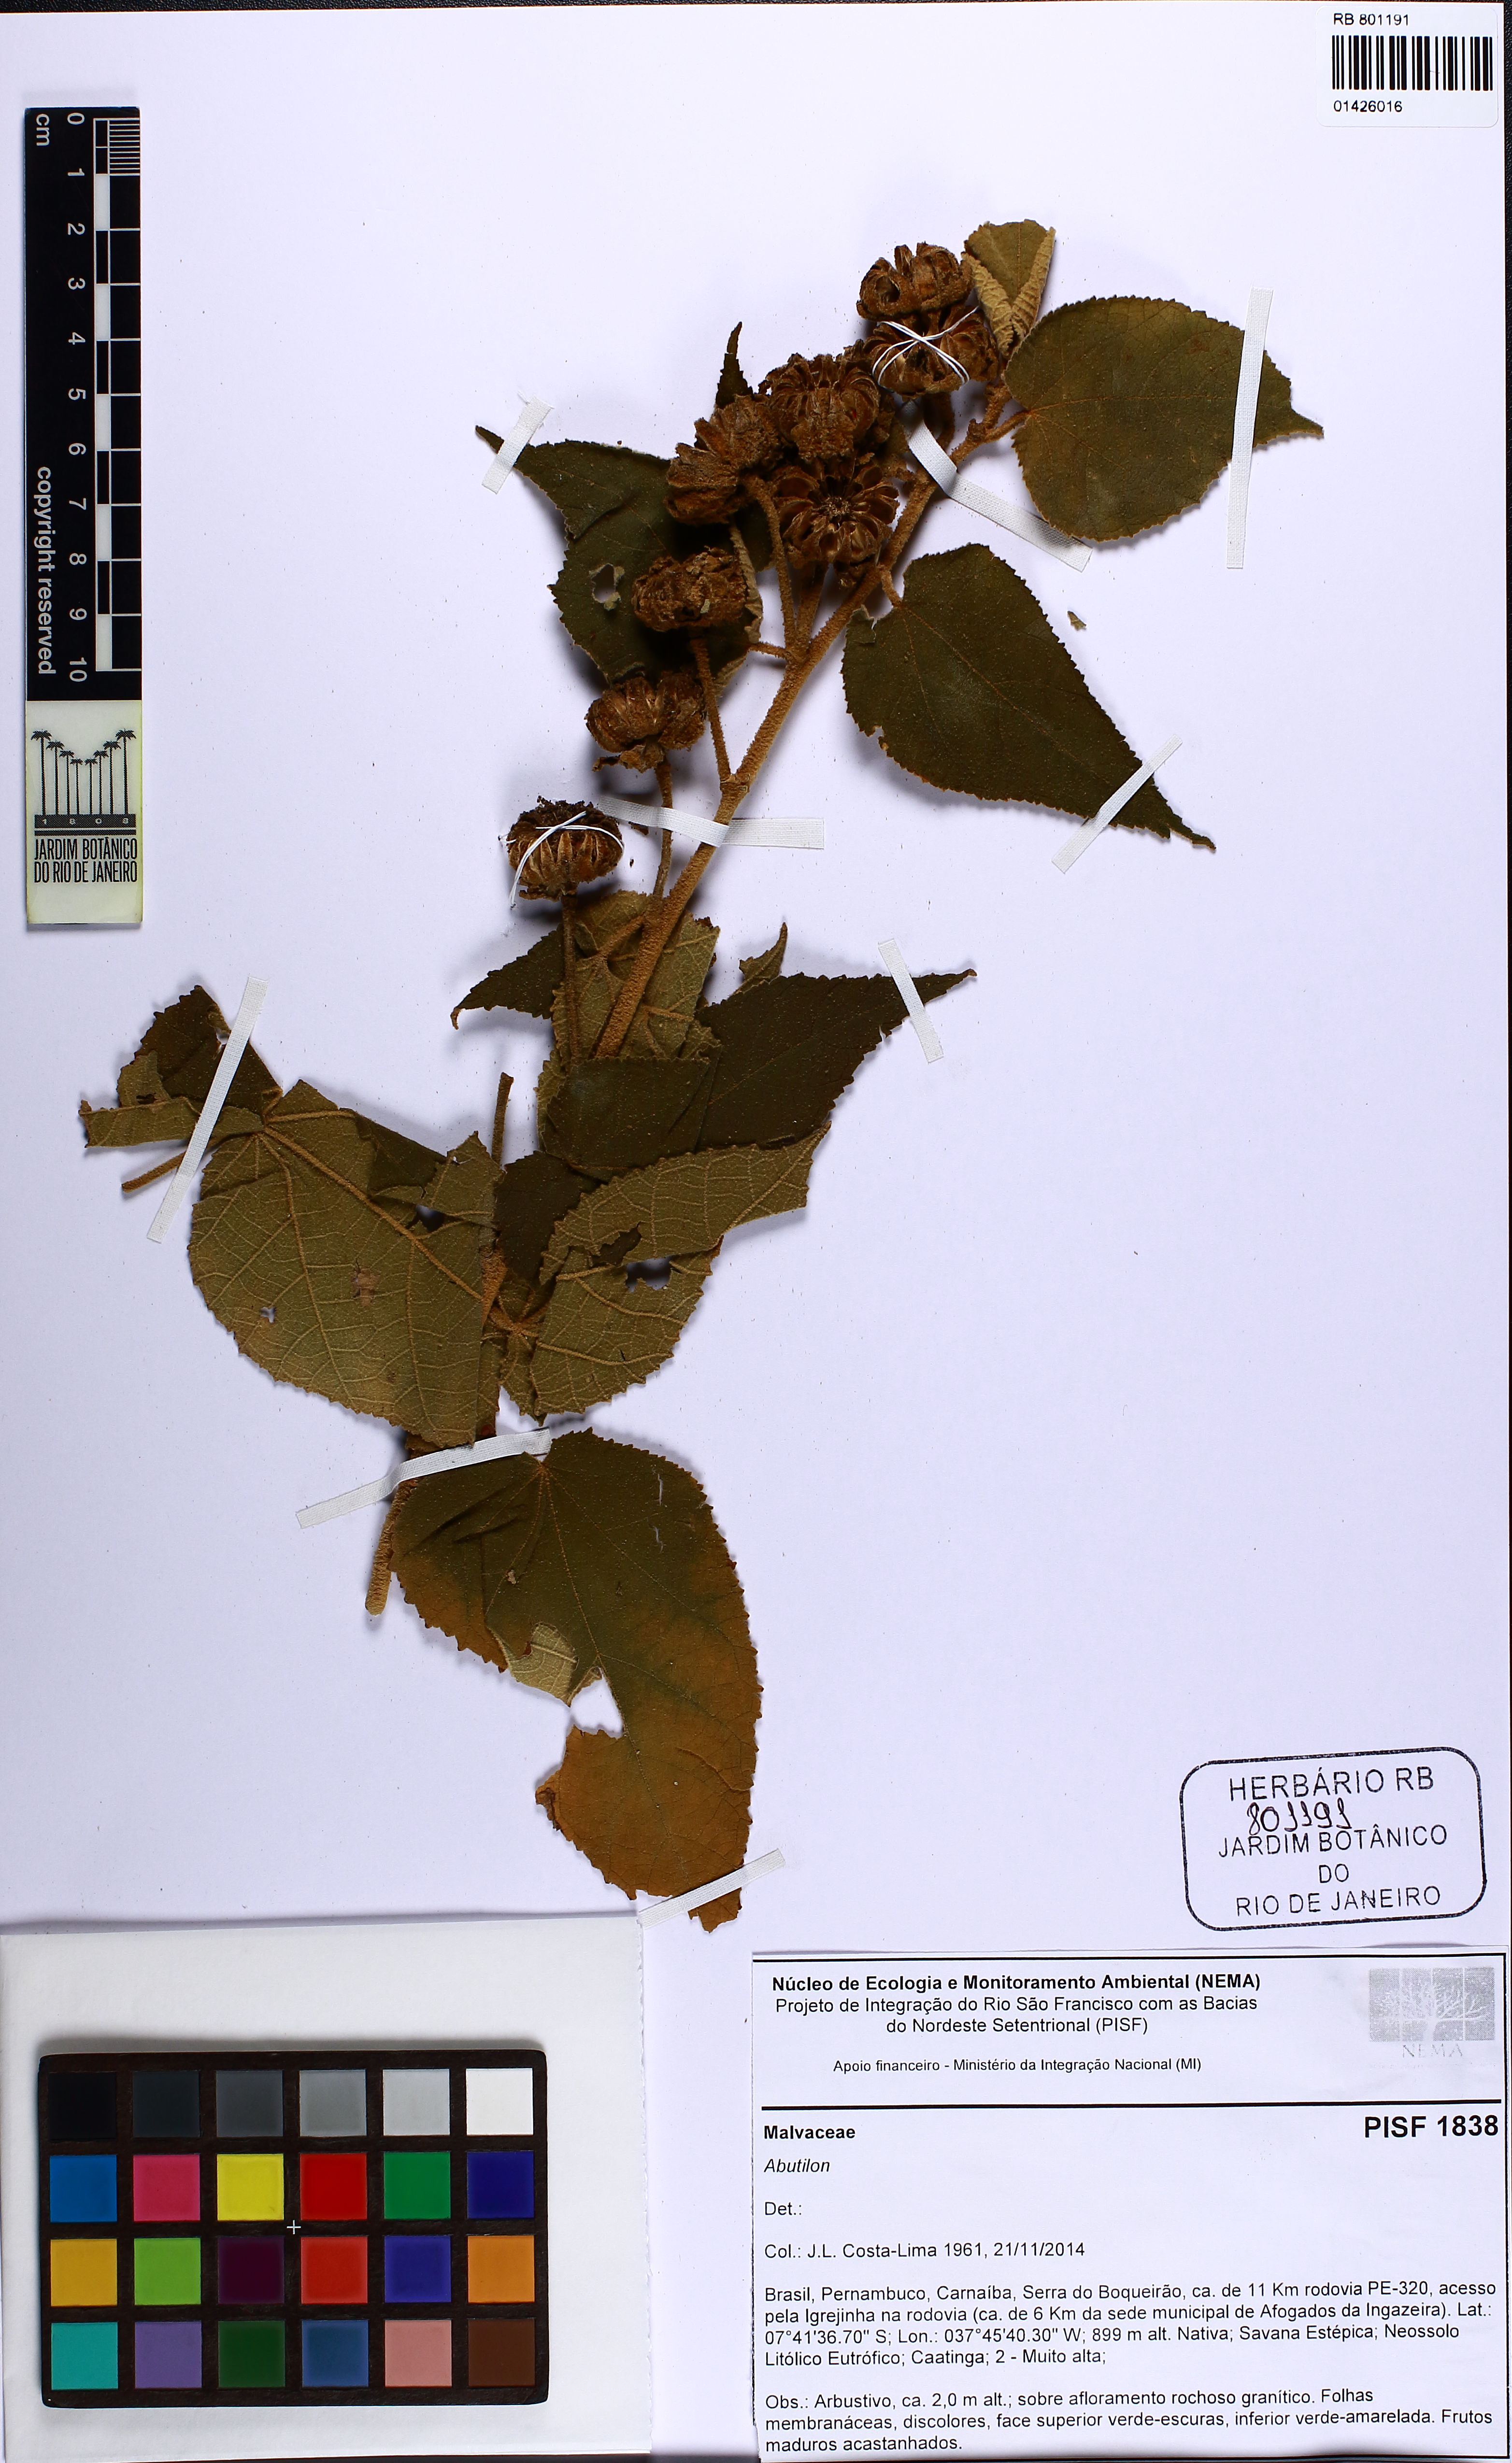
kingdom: Plantae
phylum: Tracheophyta
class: Magnoliopsida
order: Malvales
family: Malvaceae
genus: Callianthe
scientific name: Callianthe andrade-limae
